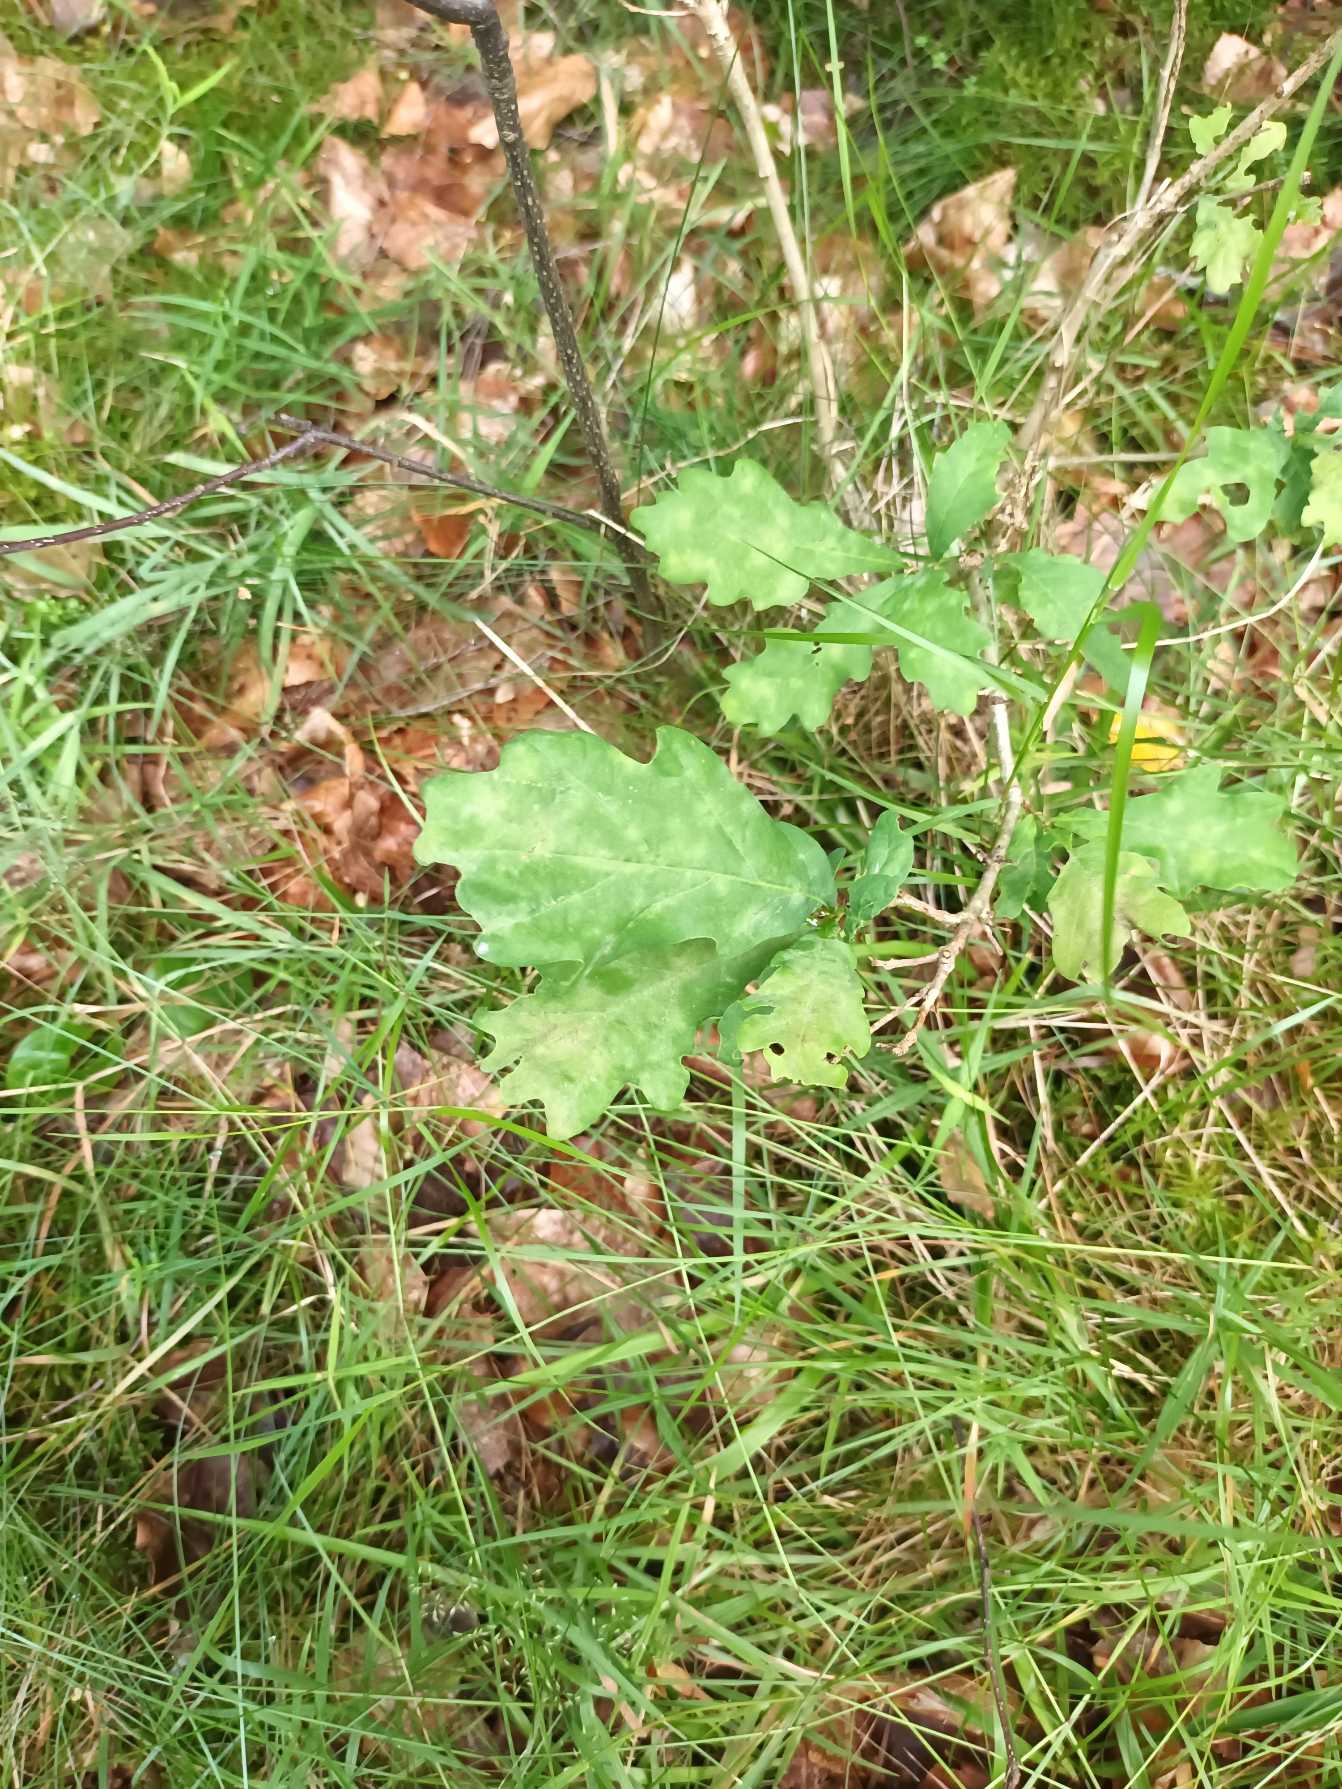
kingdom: Plantae
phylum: Tracheophyta
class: Magnoliopsida
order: Fagales
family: Fagaceae
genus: Quercus
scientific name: Quercus robur
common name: Stilk-eg/almindelig eg
